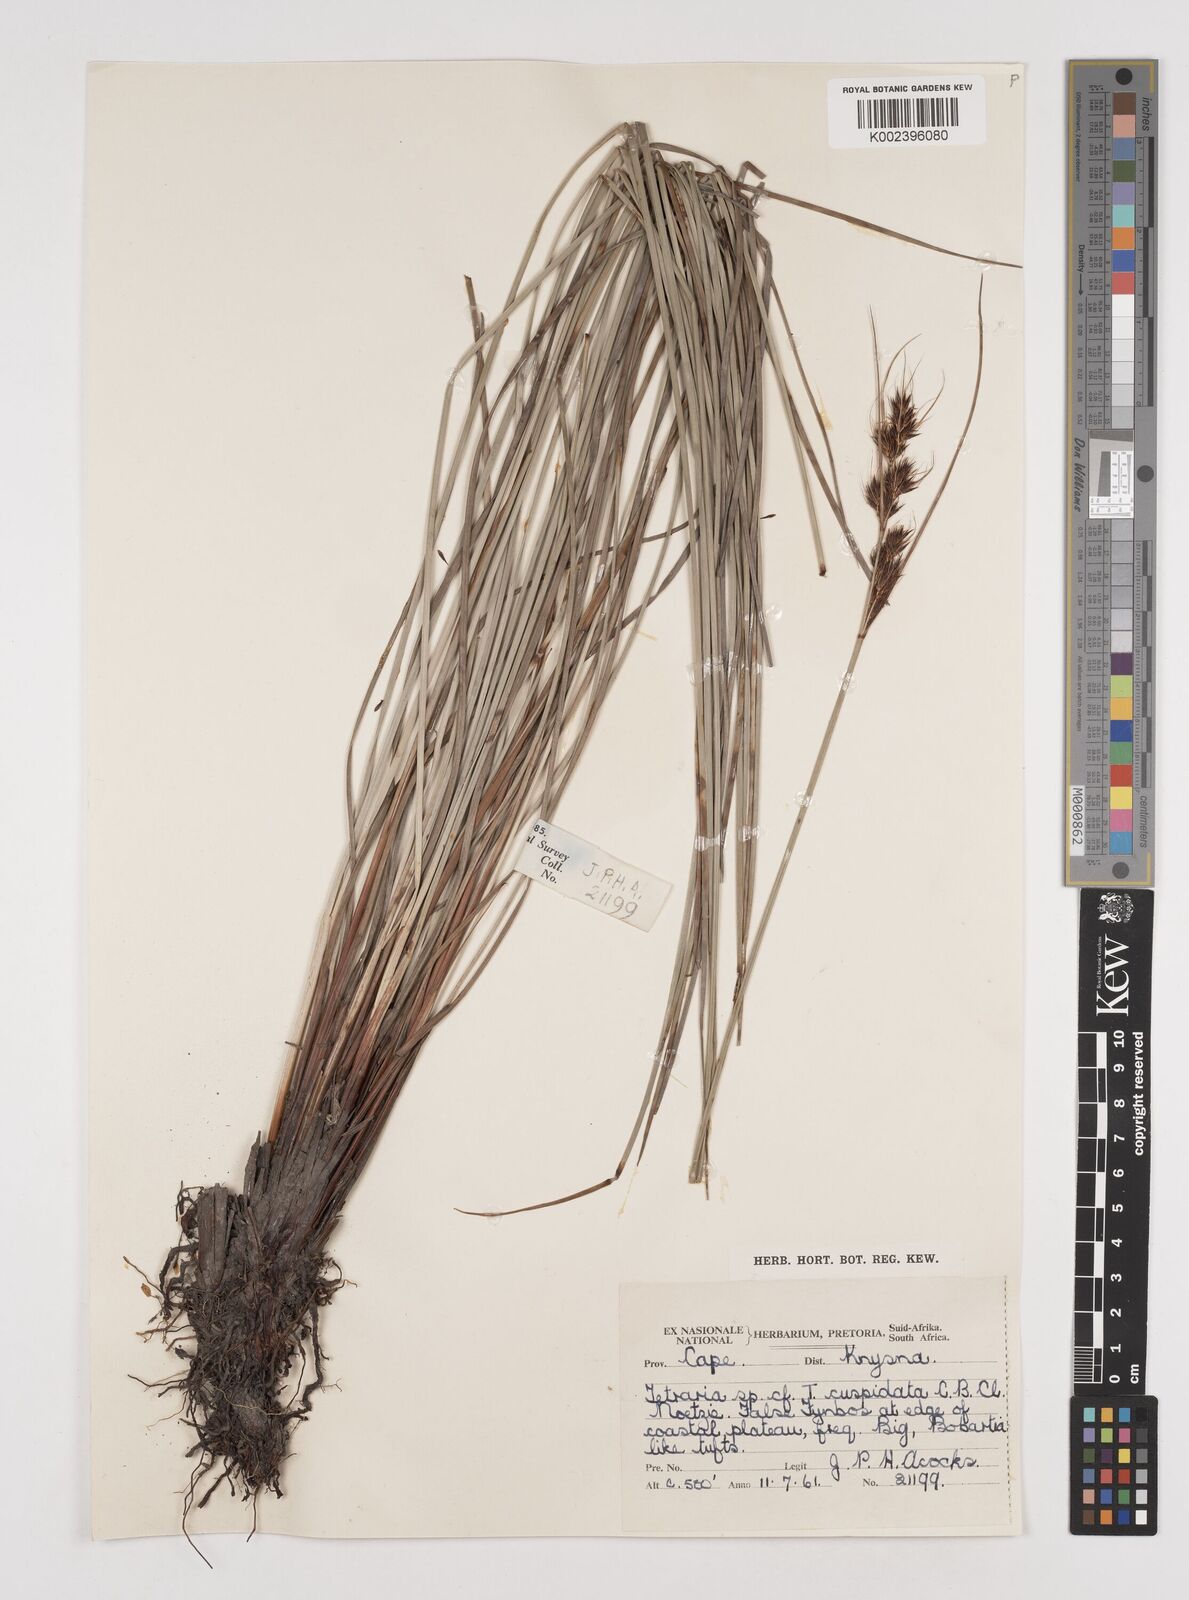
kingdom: Plantae
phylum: Tracheophyta
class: Liliopsida
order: Poales
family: Cyperaceae
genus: Schoenus
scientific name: Schoenus cuspidatus
